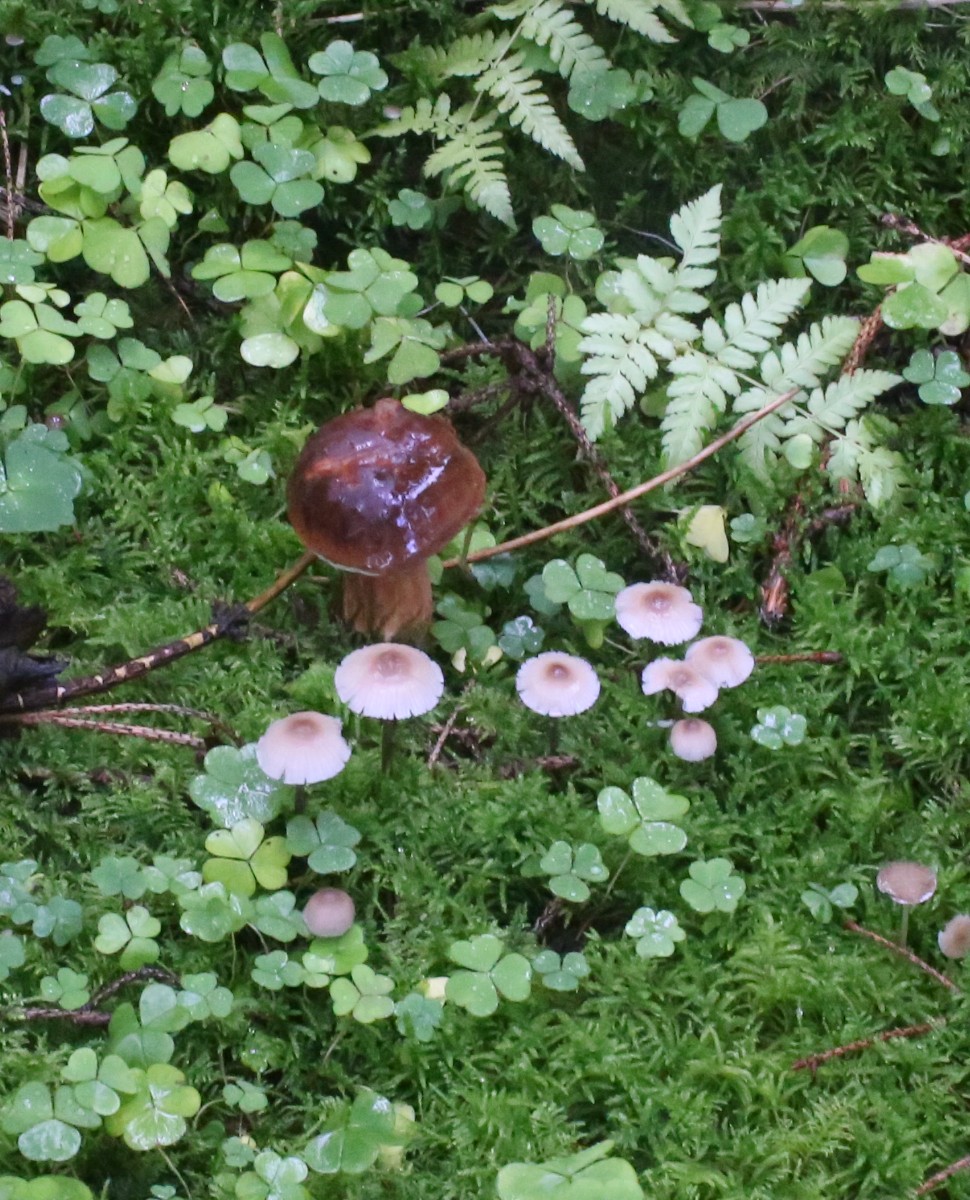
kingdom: Fungi
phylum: Basidiomycota
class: Agaricomycetes
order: Boletales
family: Boletaceae
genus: Imleria
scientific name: Imleria badia
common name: brunstokket rørhat
